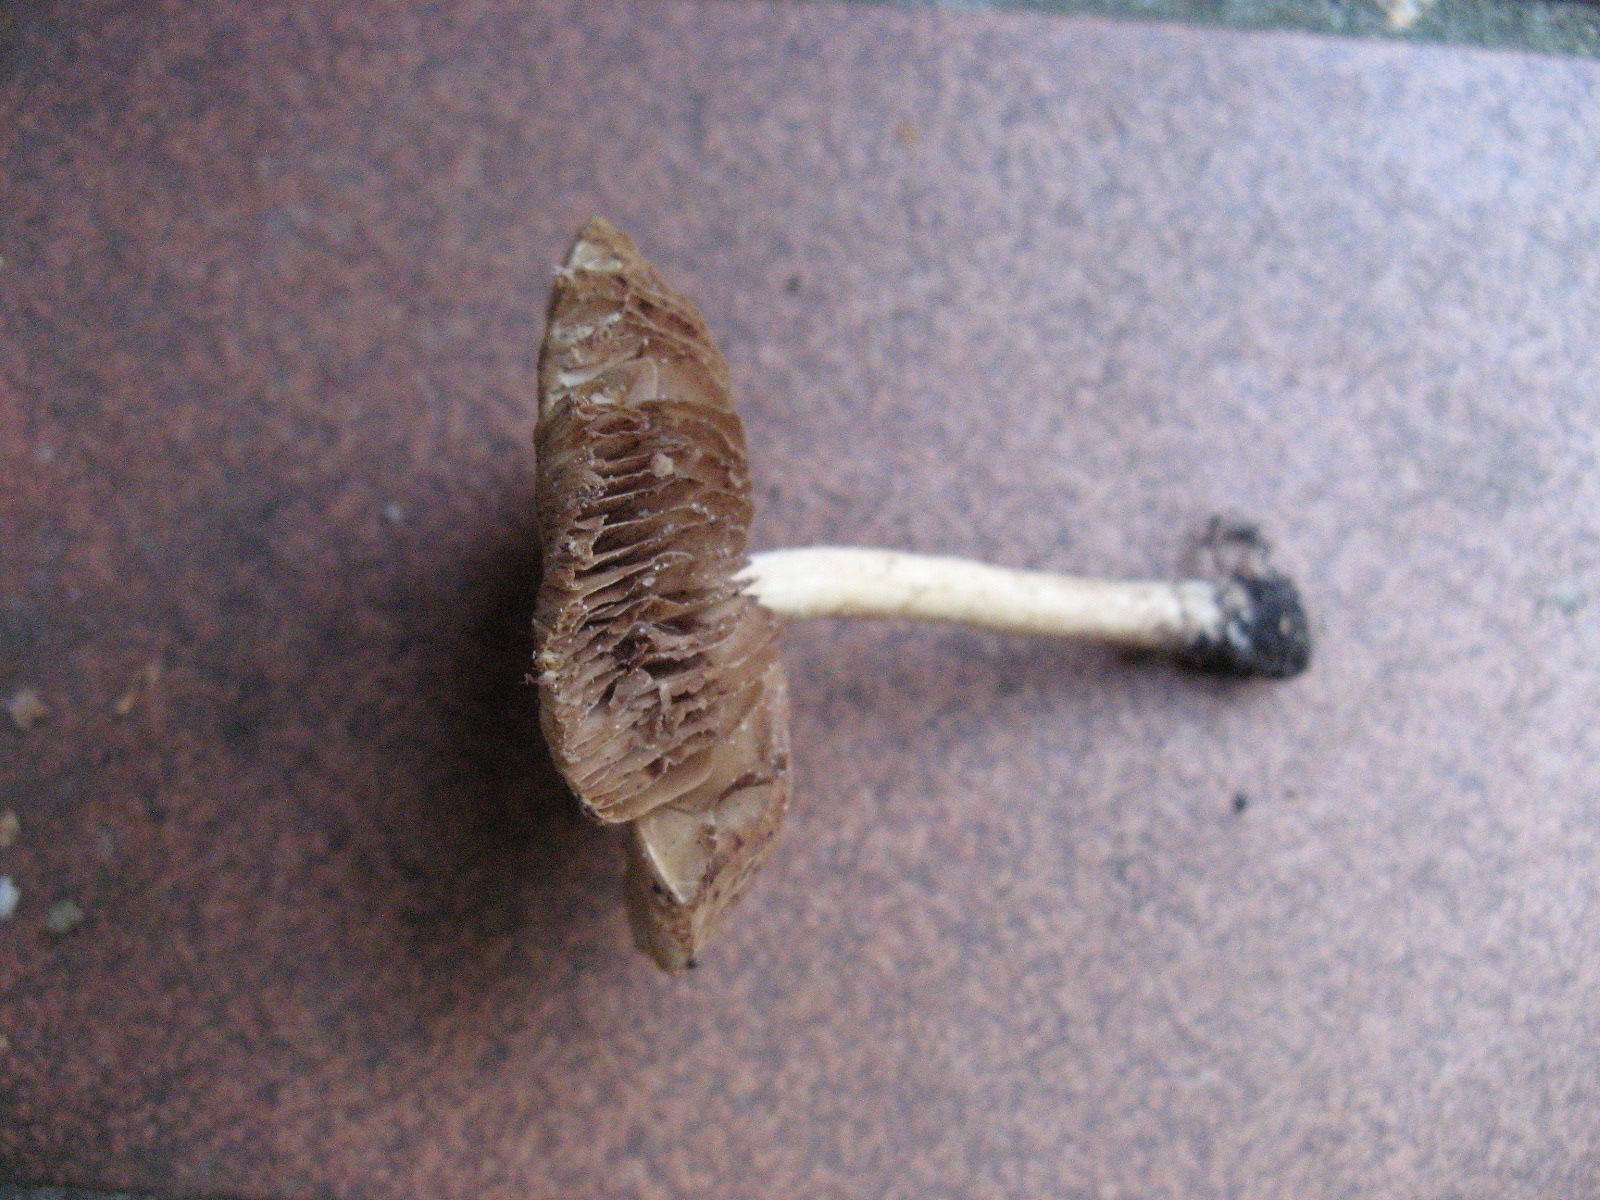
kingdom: Fungi
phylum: Basidiomycota
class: Agaricomycetes
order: Agaricales
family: Inocybaceae
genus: Inocybe
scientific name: Inocybe
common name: trævlhat
